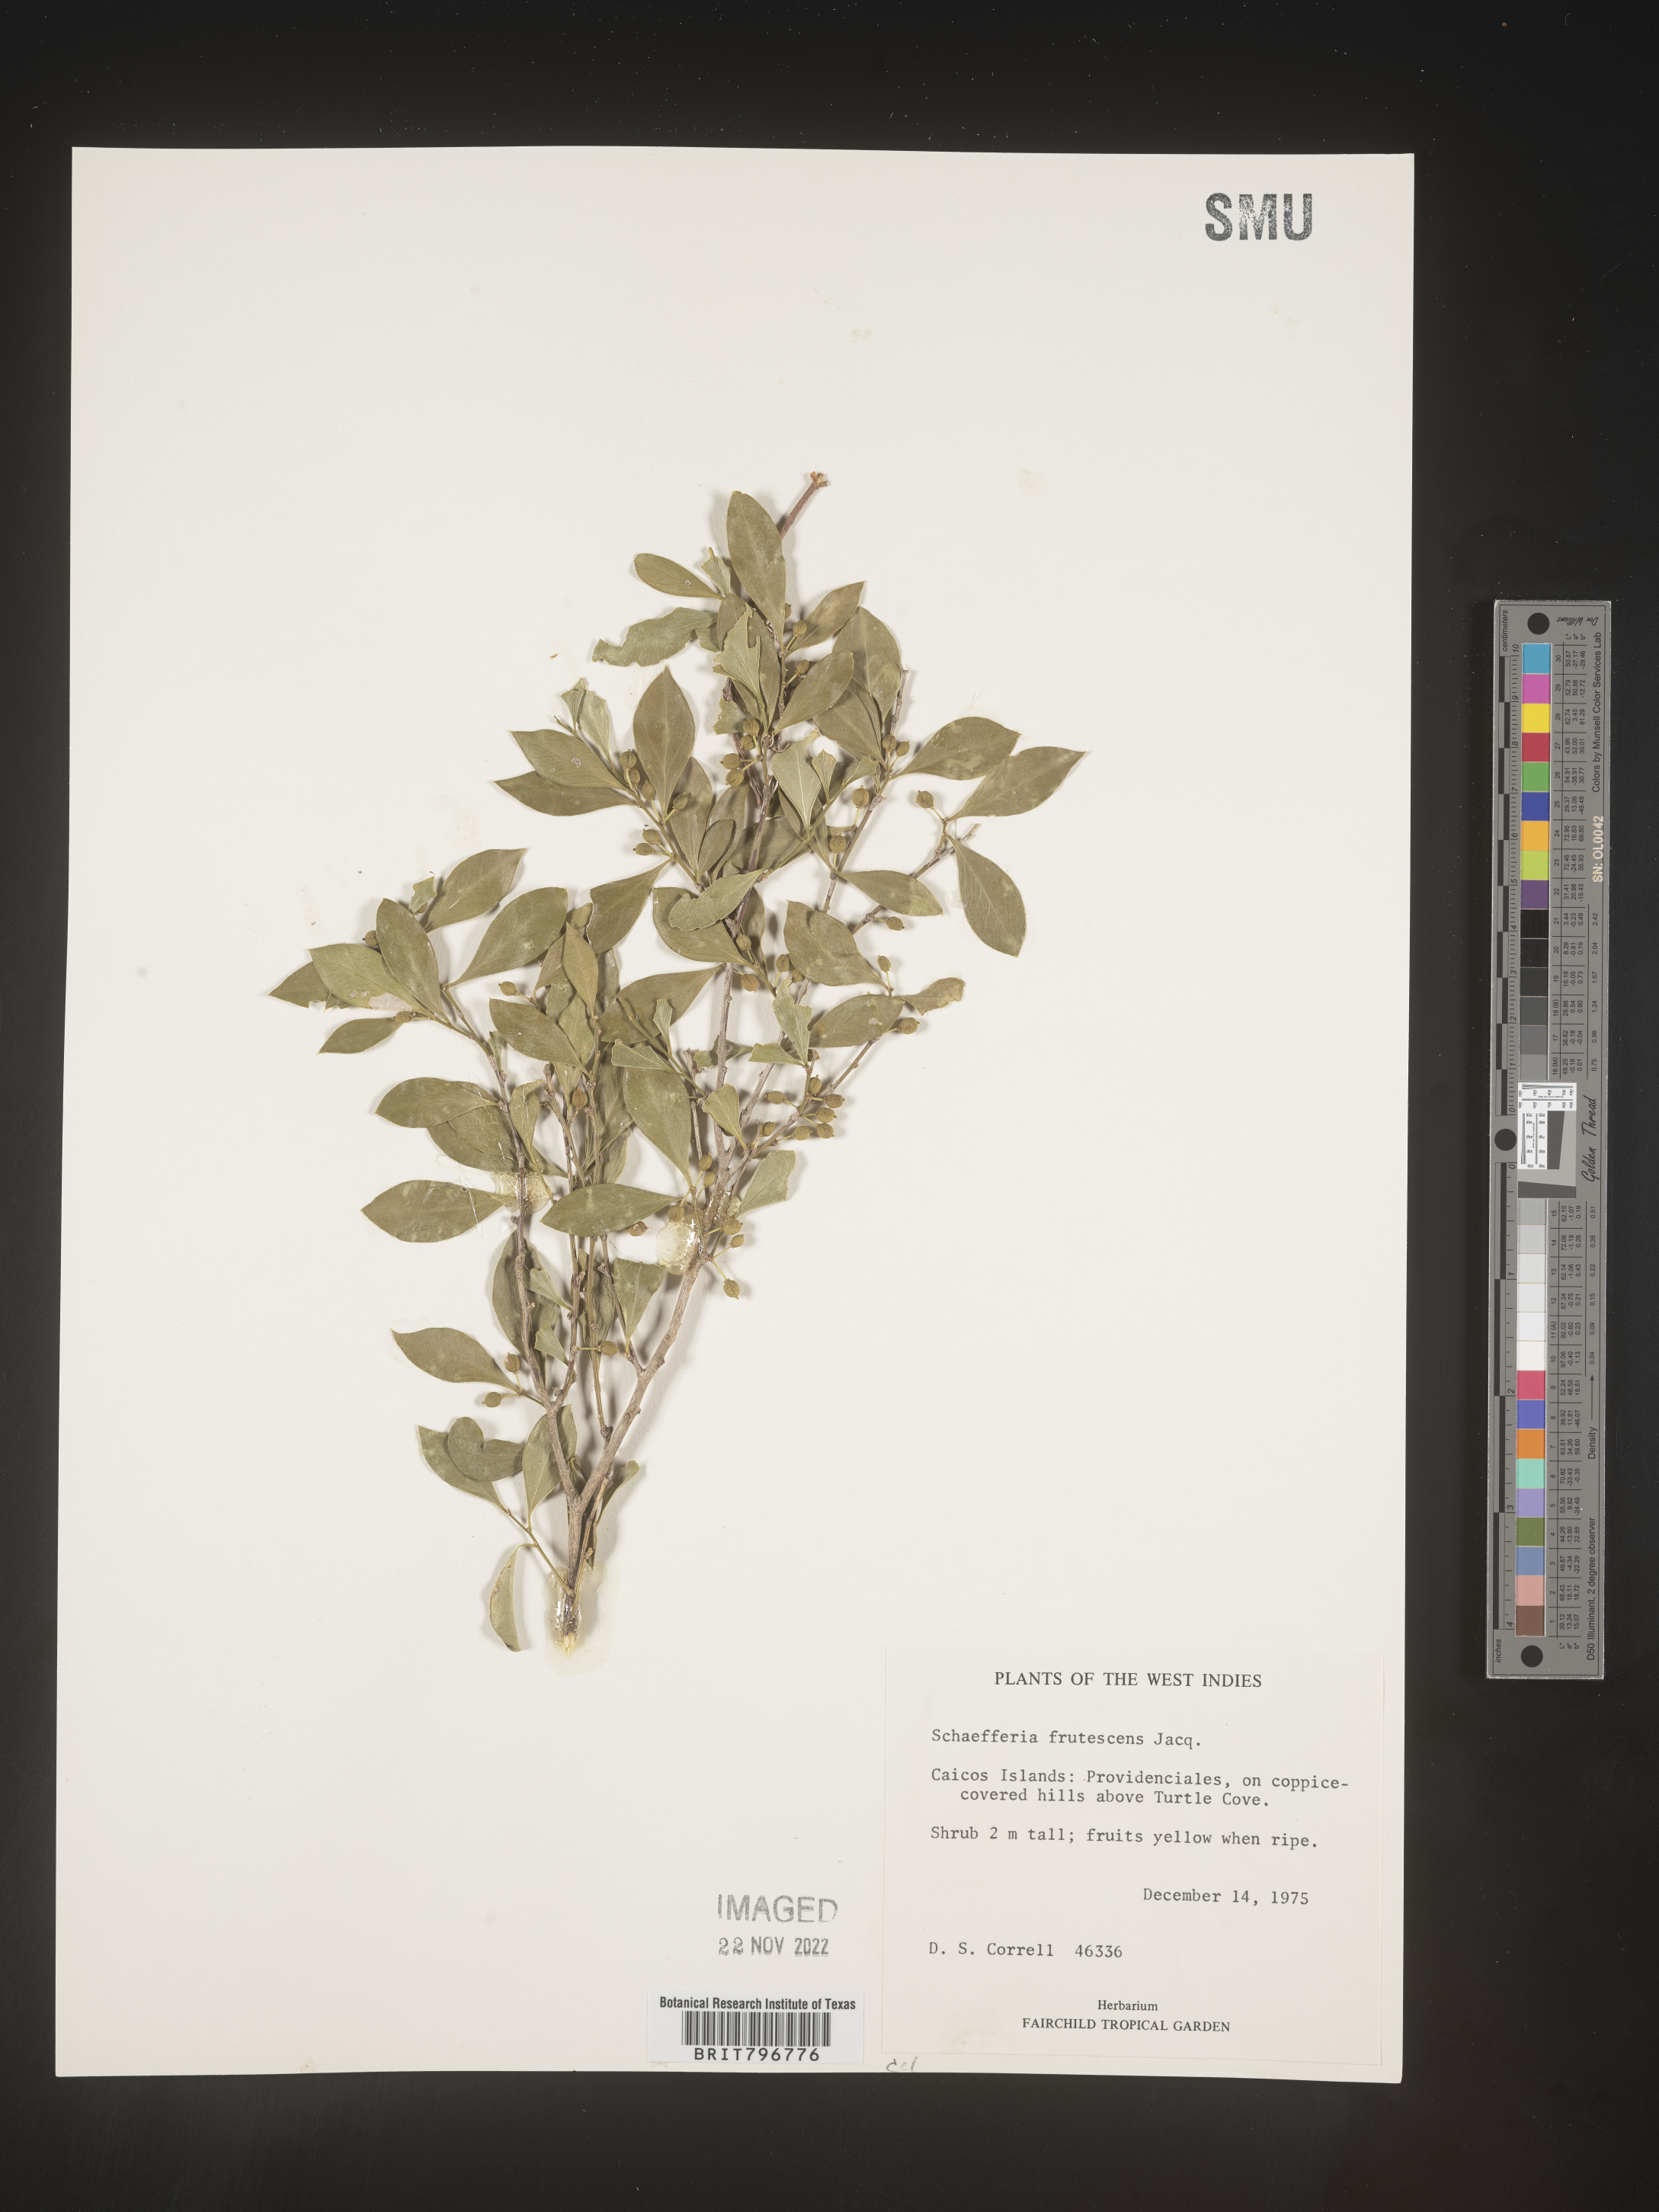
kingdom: Plantae
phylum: Tracheophyta
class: Magnoliopsida
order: Celastrales
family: Celastraceae
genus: Schaefferia
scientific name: Schaefferia
